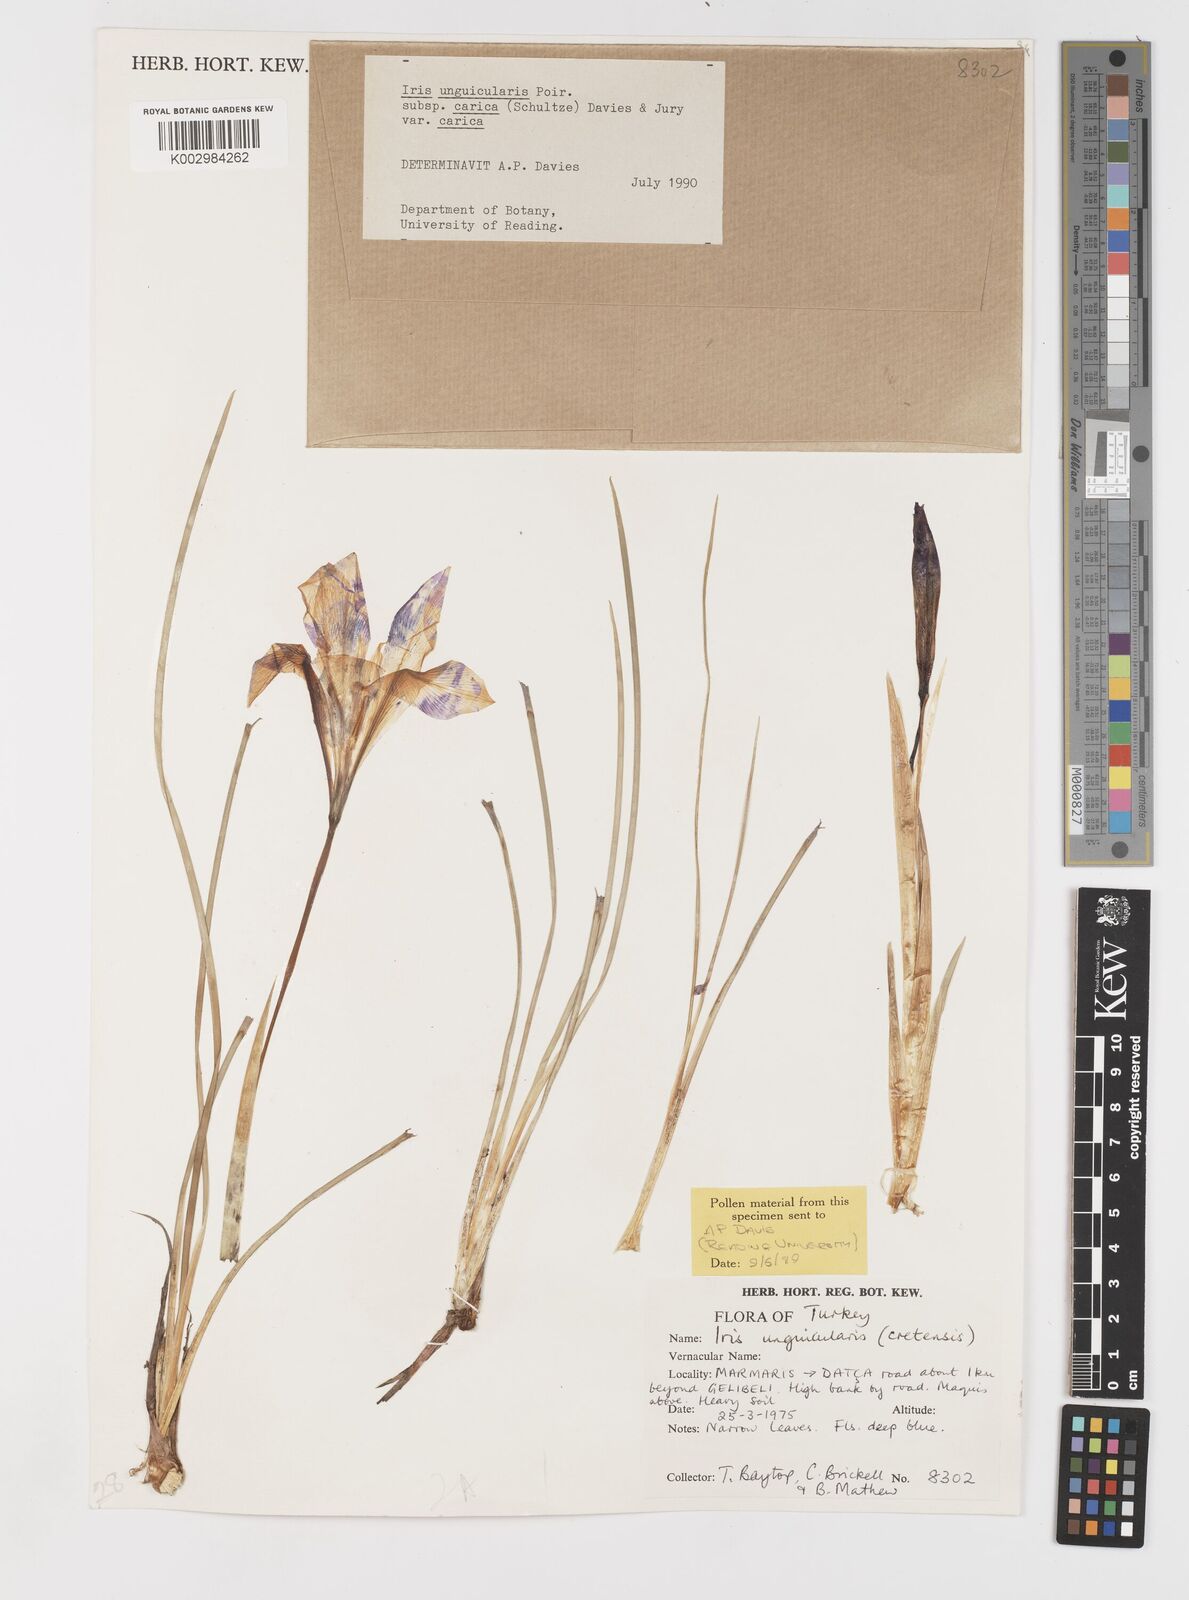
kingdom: Plantae
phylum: Tracheophyta
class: Liliopsida
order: Asparagales
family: Iridaceae
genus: Iris
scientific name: Iris unguicularis
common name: Algerian iris
